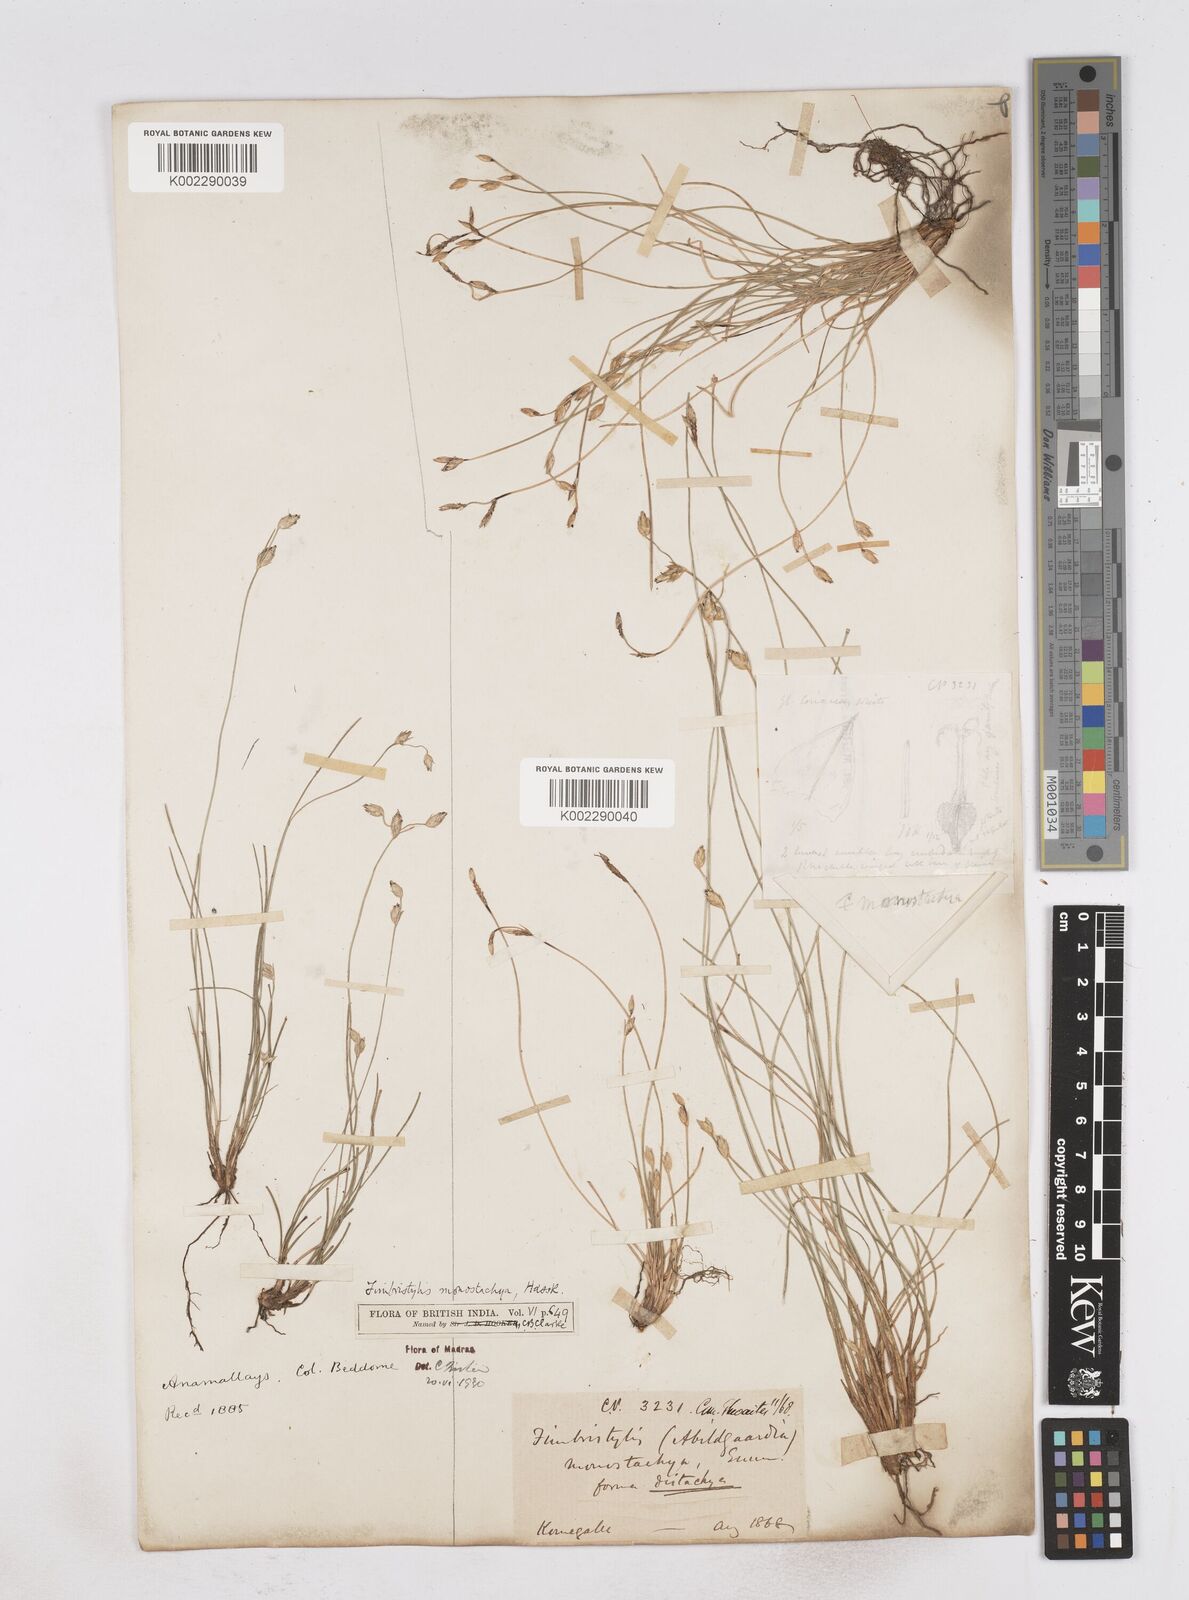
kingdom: Plantae
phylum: Tracheophyta
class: Liliopsida
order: Poales
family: Cyperaceae
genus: Abildgaardia
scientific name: Abildgaardia ovata
